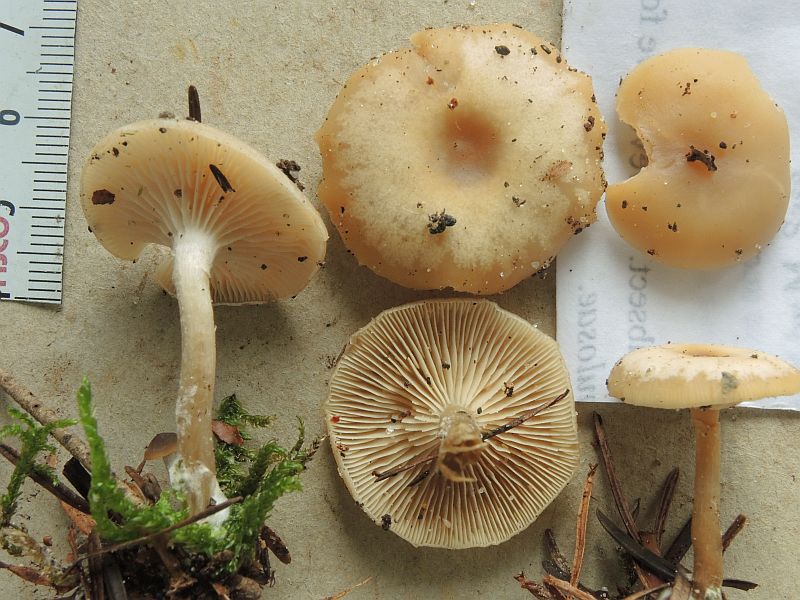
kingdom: Fungi
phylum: Basidiomycota
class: Agaricomycetes
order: Agaricales
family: Tricholomataceae
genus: Clitocybe
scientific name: Clitocybe metachroa
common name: grå tragthat
